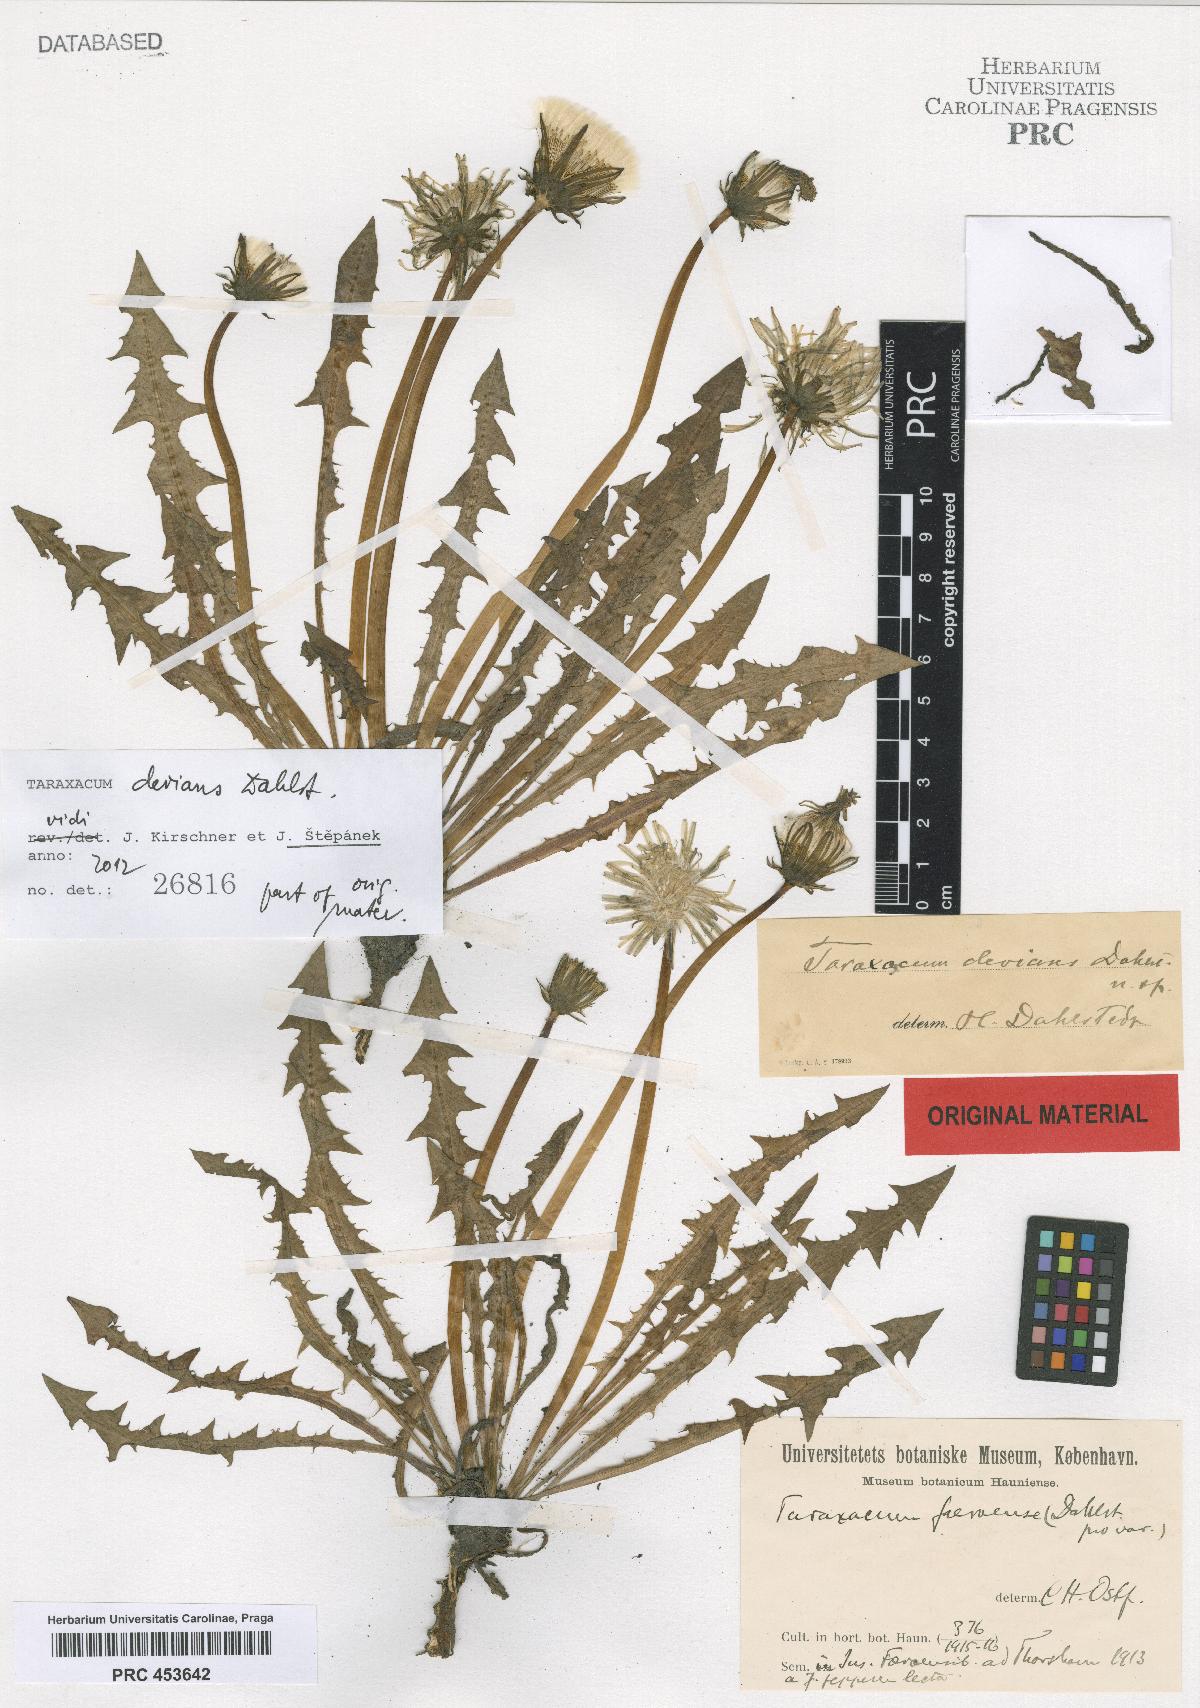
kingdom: Plantae
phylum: Tracheophyta
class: Magnoliopsida
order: Asterales
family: Asteraceae
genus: Taraxacum
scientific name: Taraxacum devians
